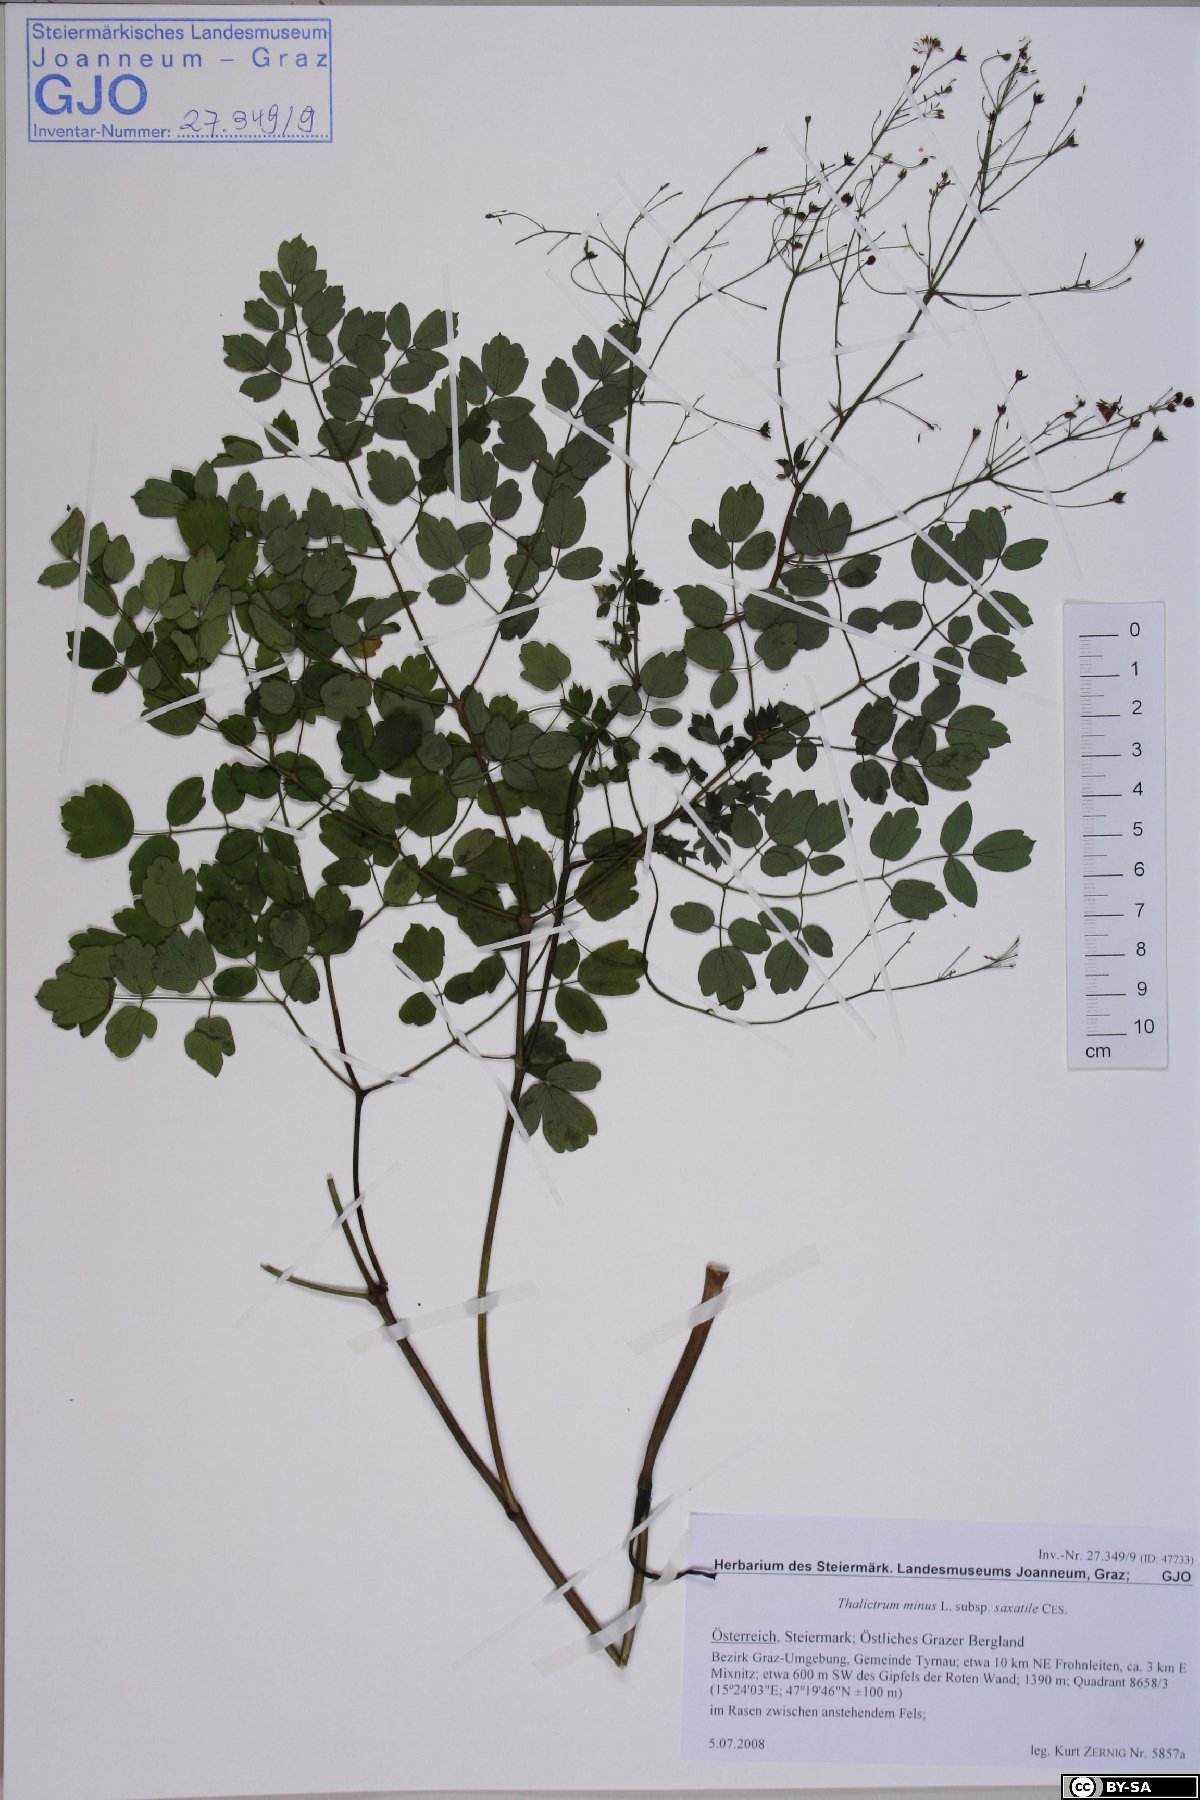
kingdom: Plantae
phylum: Tracheophyta
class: Magnoliopsida
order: Ranunculales
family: Ranunculaceae
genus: Thalictrum
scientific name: Thalictrum minus
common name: Lesser meadow-rue
